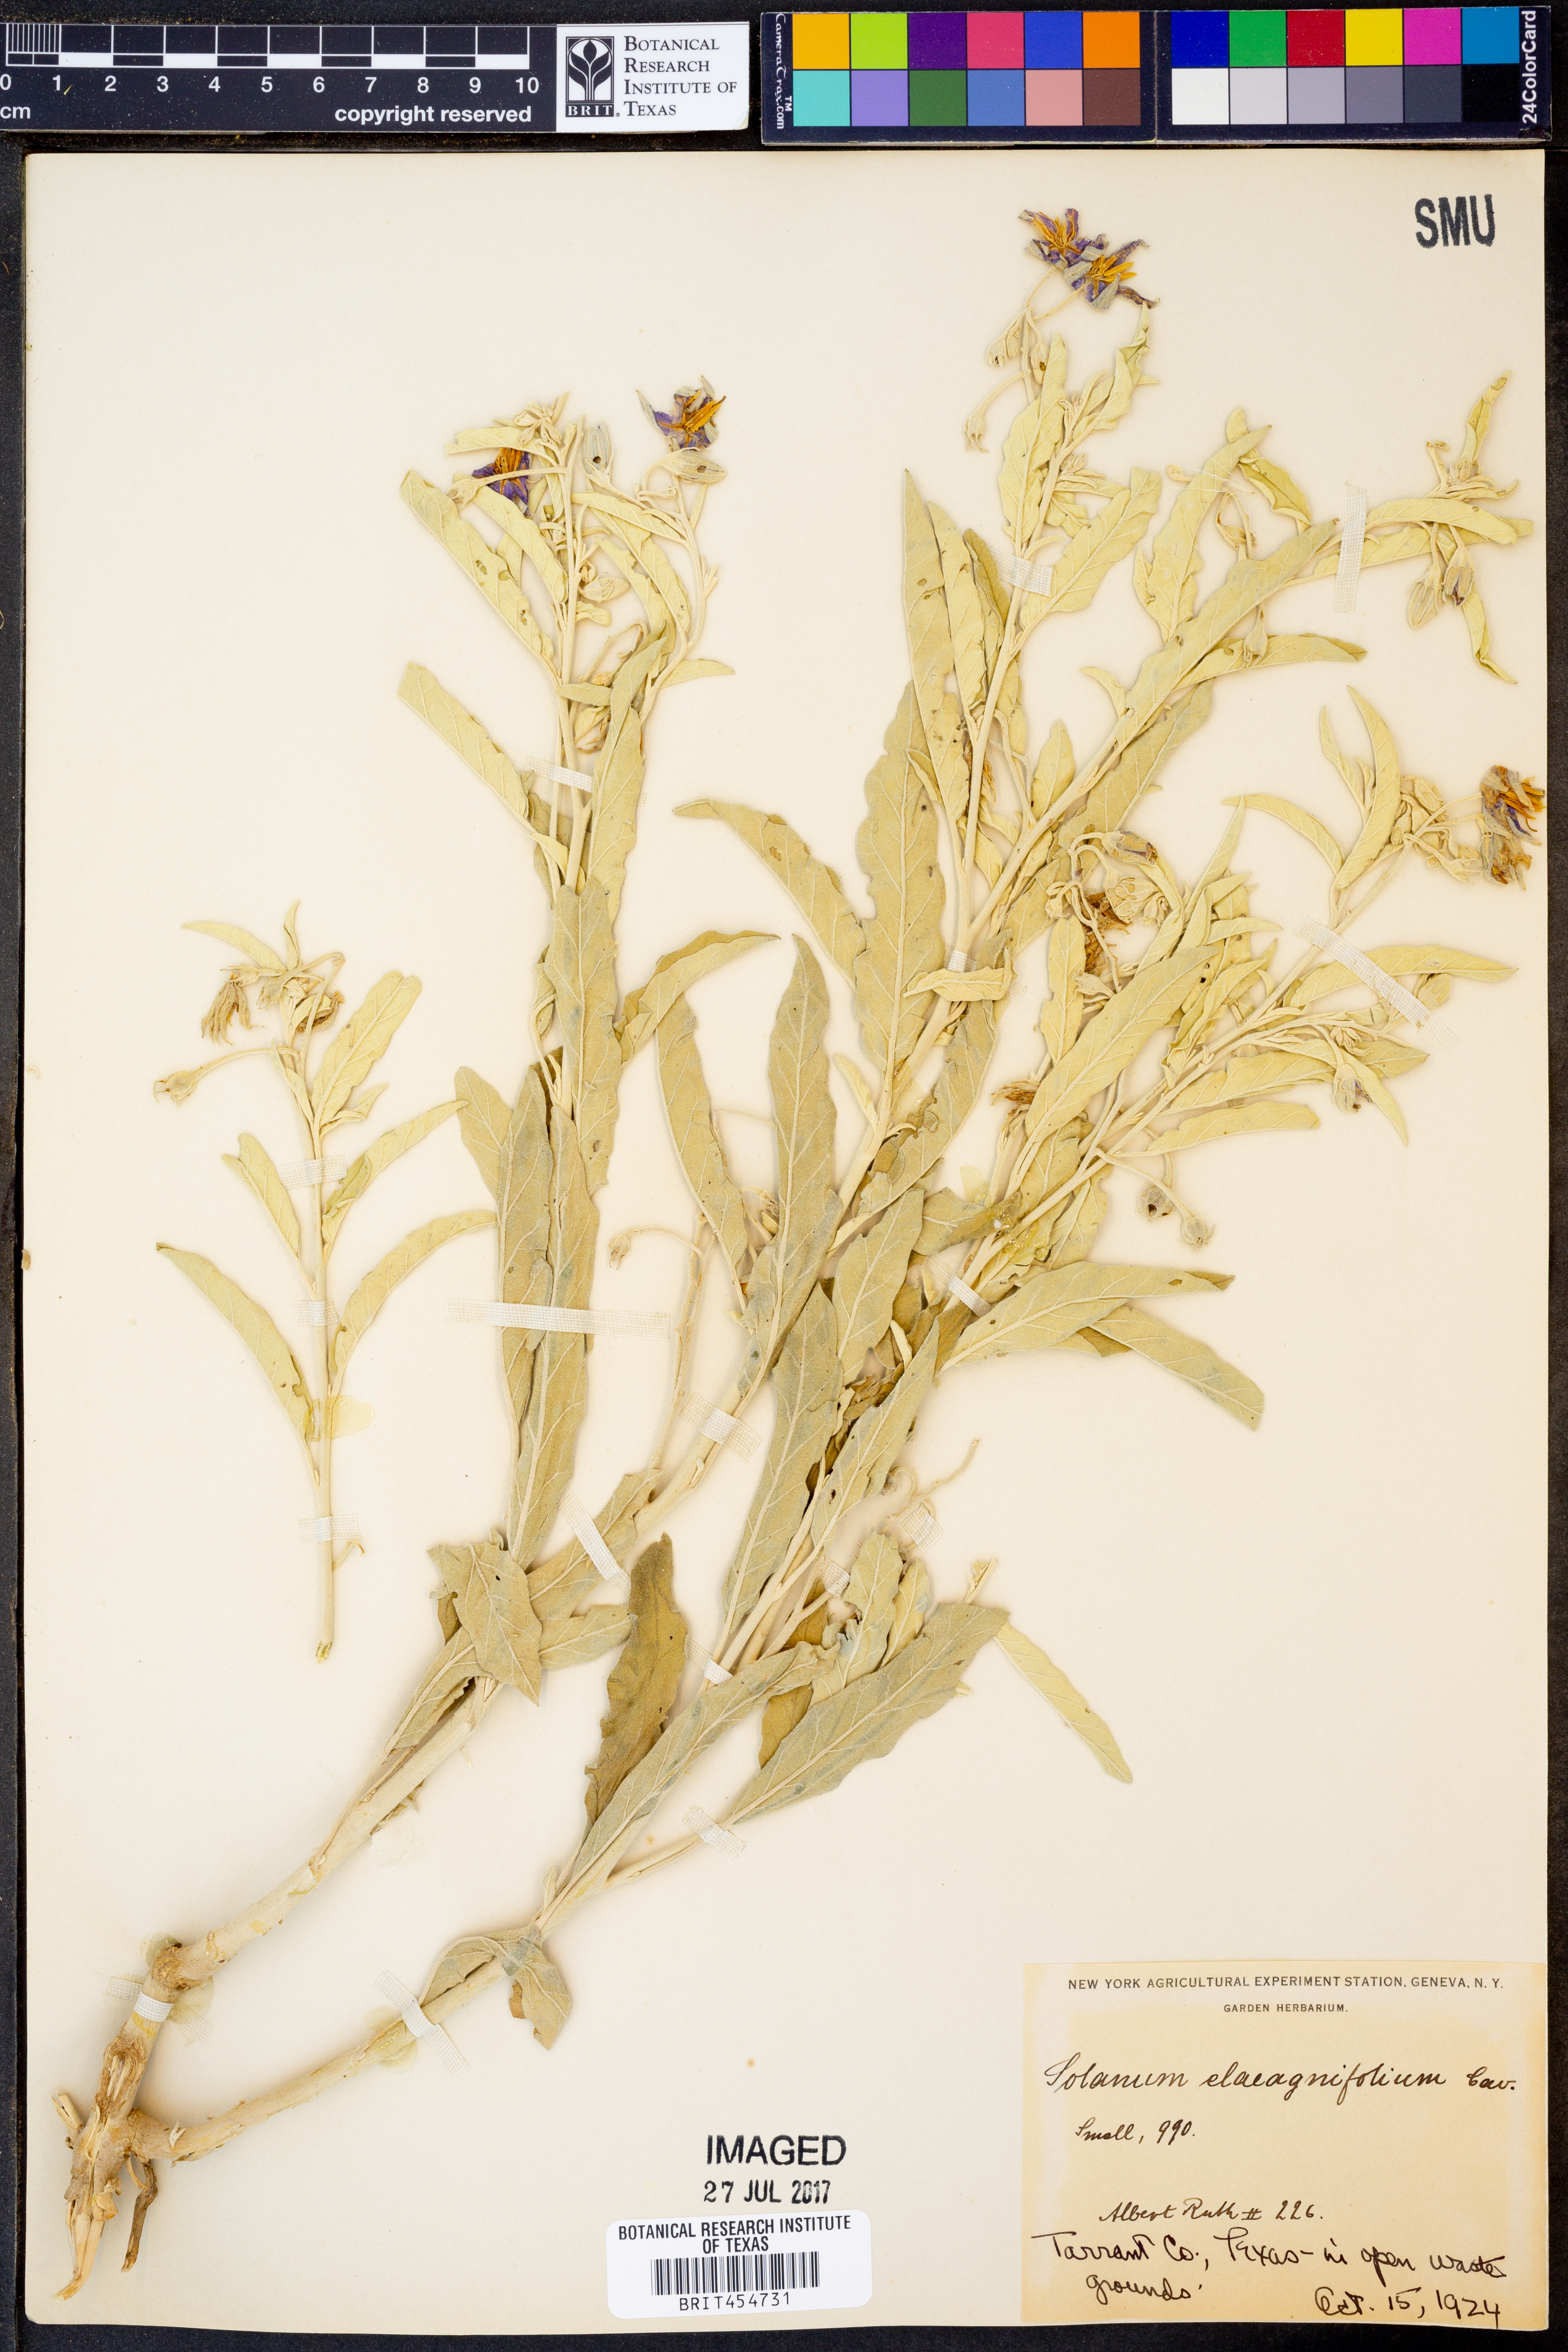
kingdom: Plantae
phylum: Tracheophyta
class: Magnoliopsida
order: Solanales
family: Solanaceae
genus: Solanum
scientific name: Solanum elaeagnifolium
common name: Silverleaf nightshade
